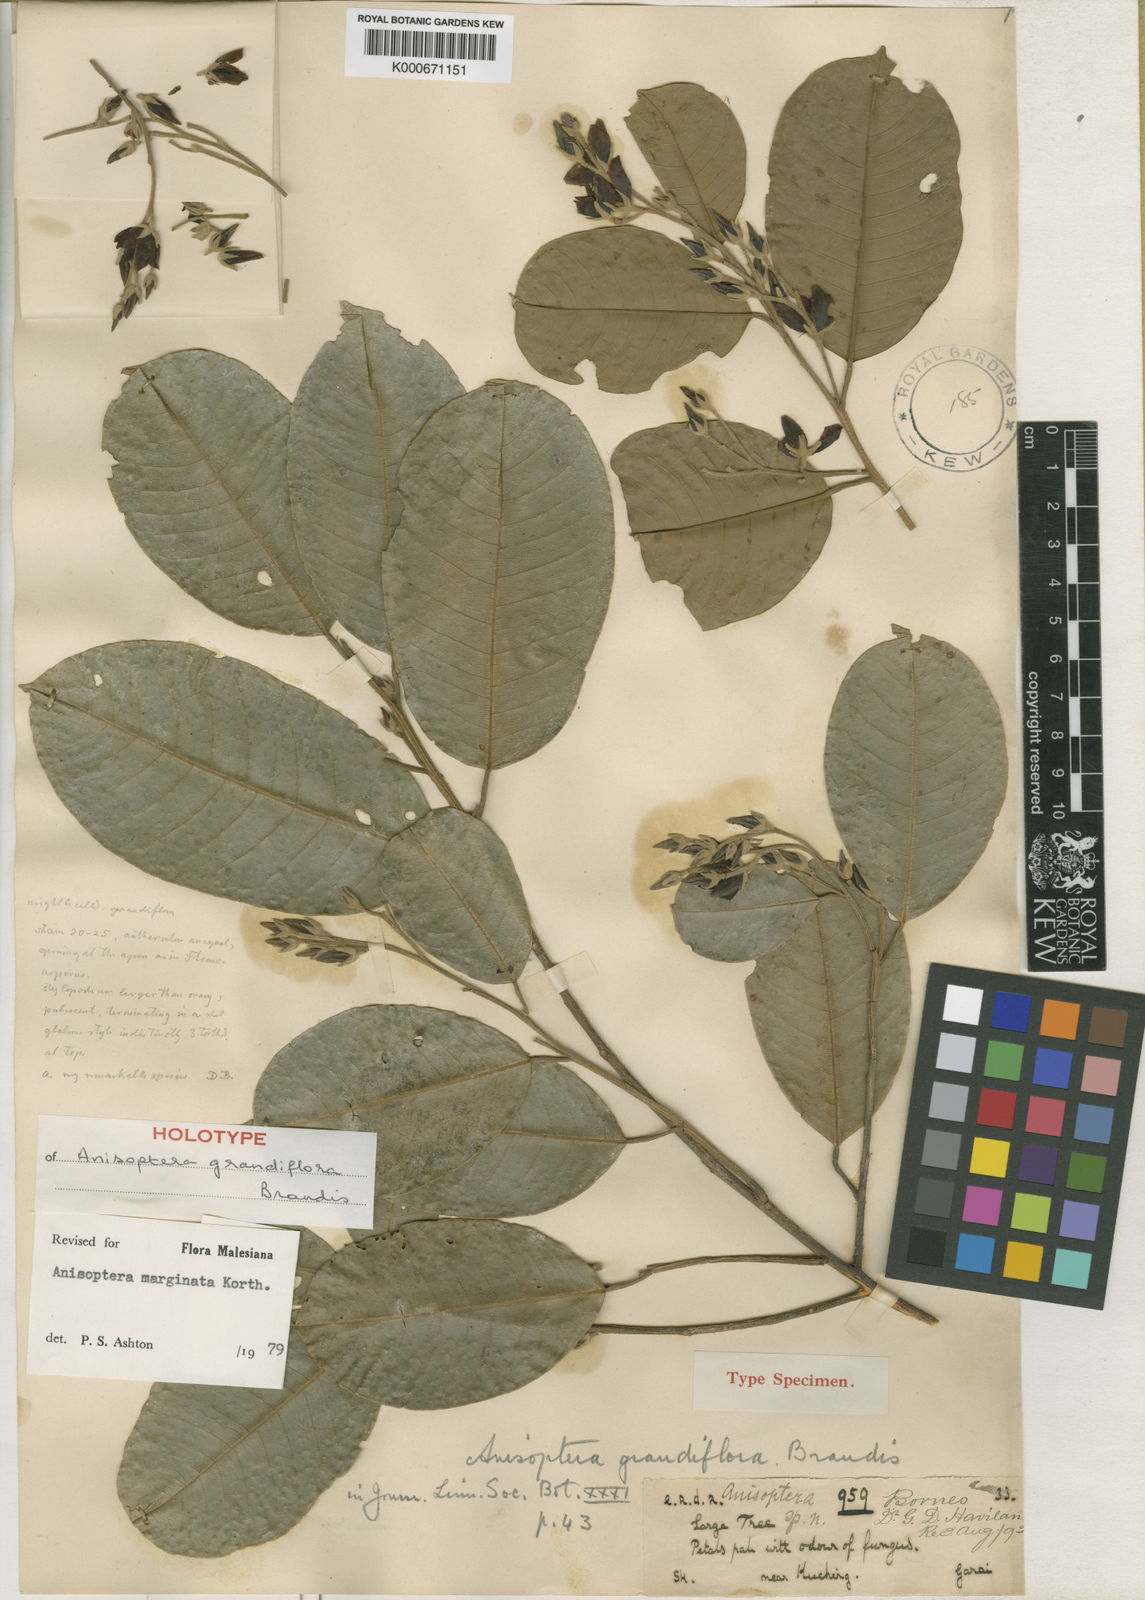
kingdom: Plantae
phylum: Tracheophyta
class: Magnoliopsida
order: Malvales
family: Dipterocarpaceae
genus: Anisoptera
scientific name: Anisoptera marginata
